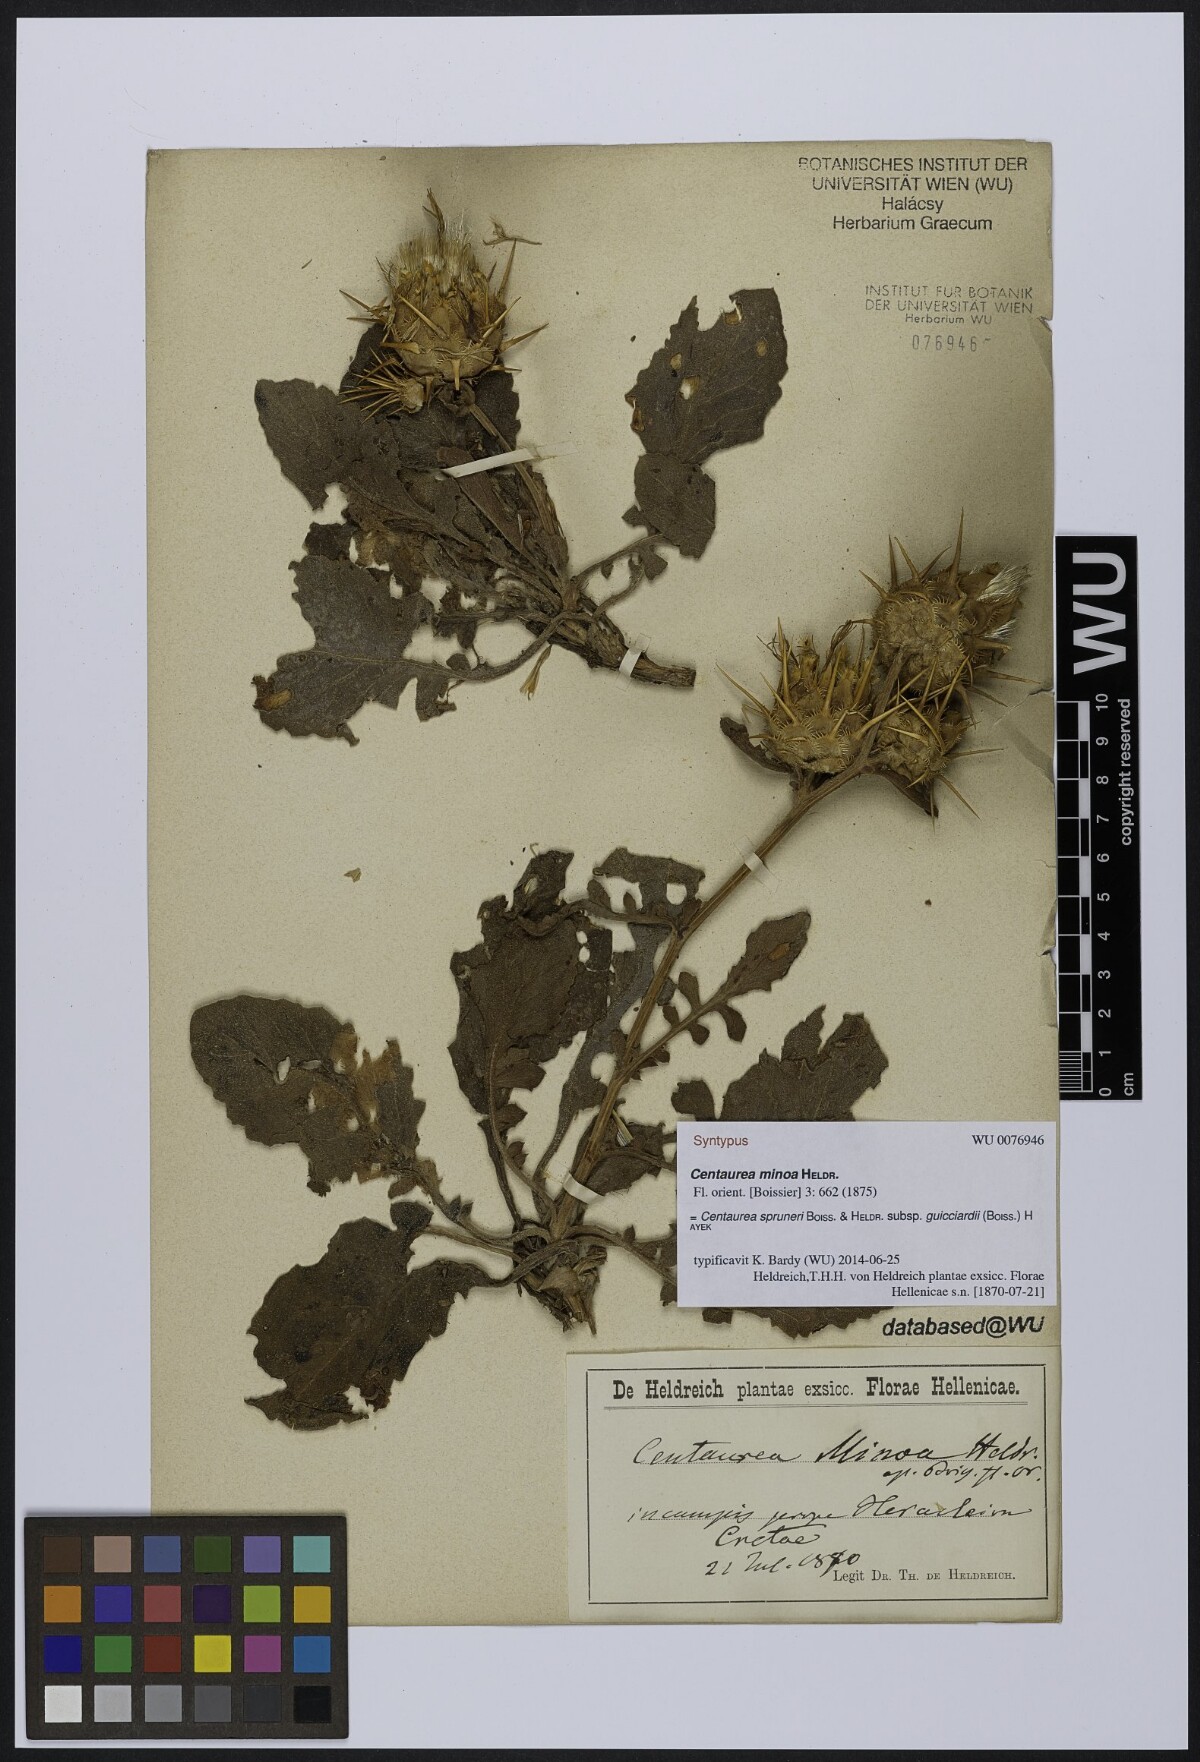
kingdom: Plantae
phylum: Tracheophyta
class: Magnoliopsida
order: Asterales
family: Asteraceae
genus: Centaurea
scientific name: Centaurea spruneri
